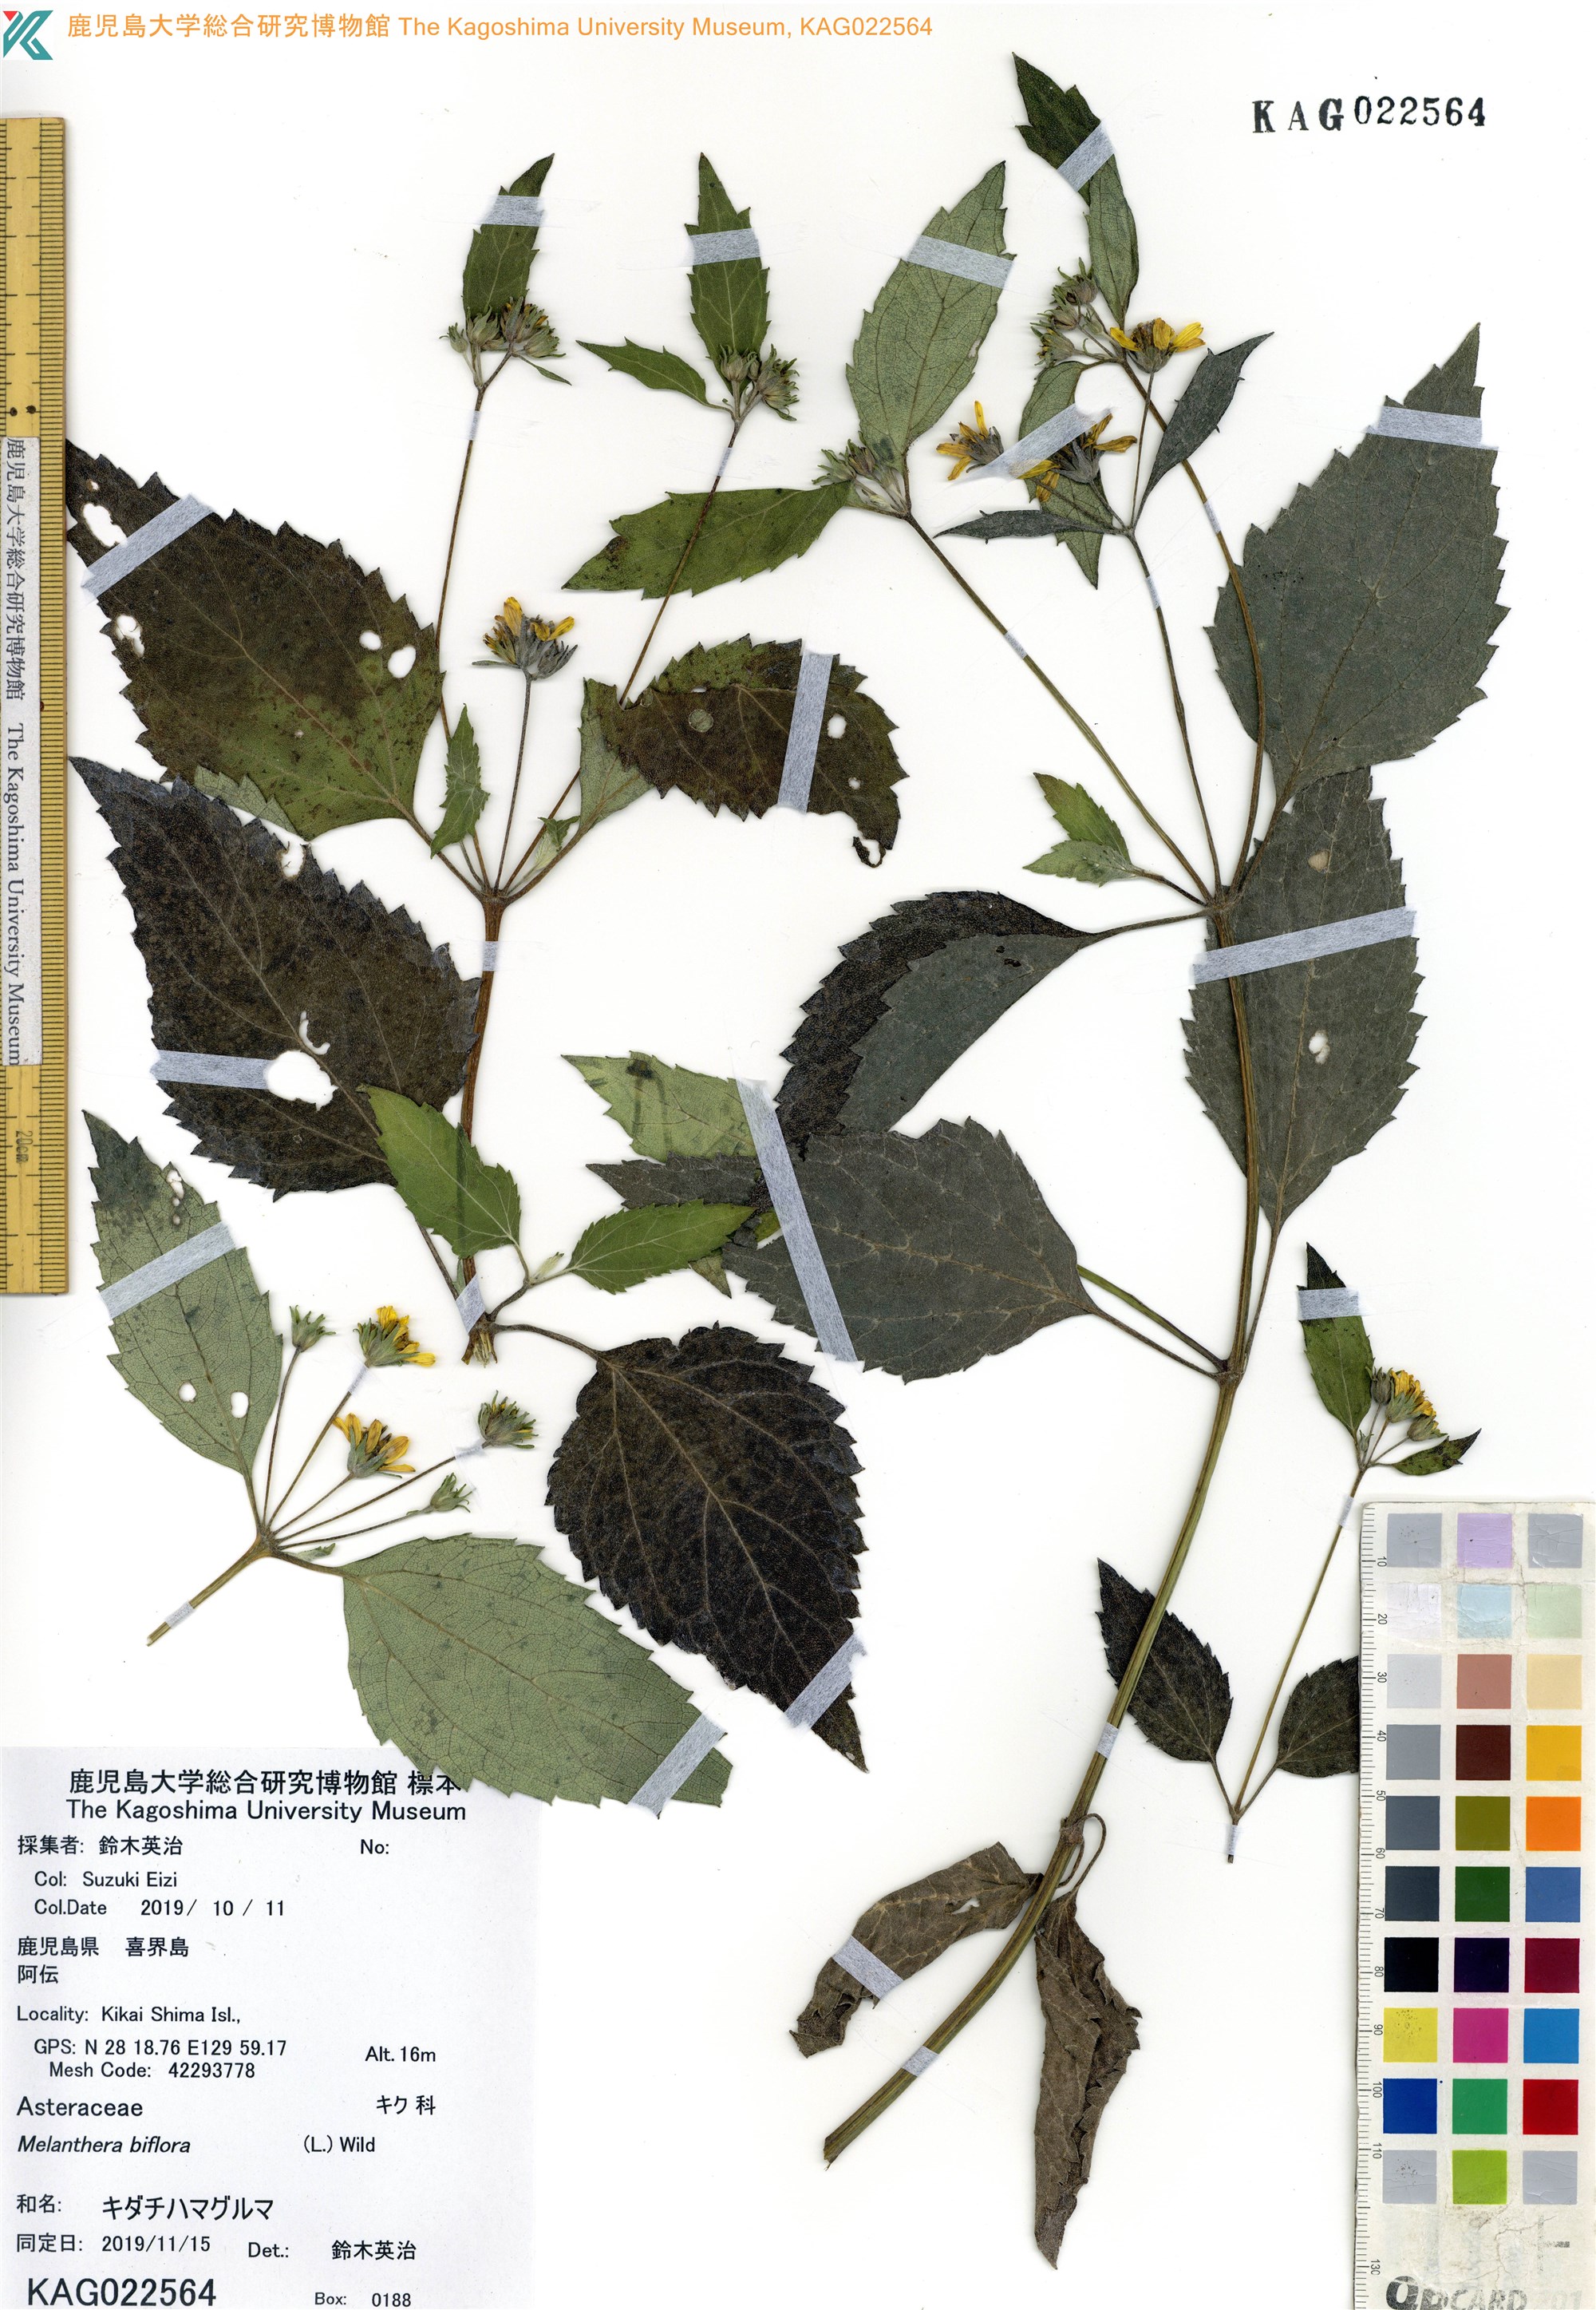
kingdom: Plantae
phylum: Tracheophyta
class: Magnoliopsida
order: Asterales
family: Asteraceae
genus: Wollastonia
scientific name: Wollastonia biflora
